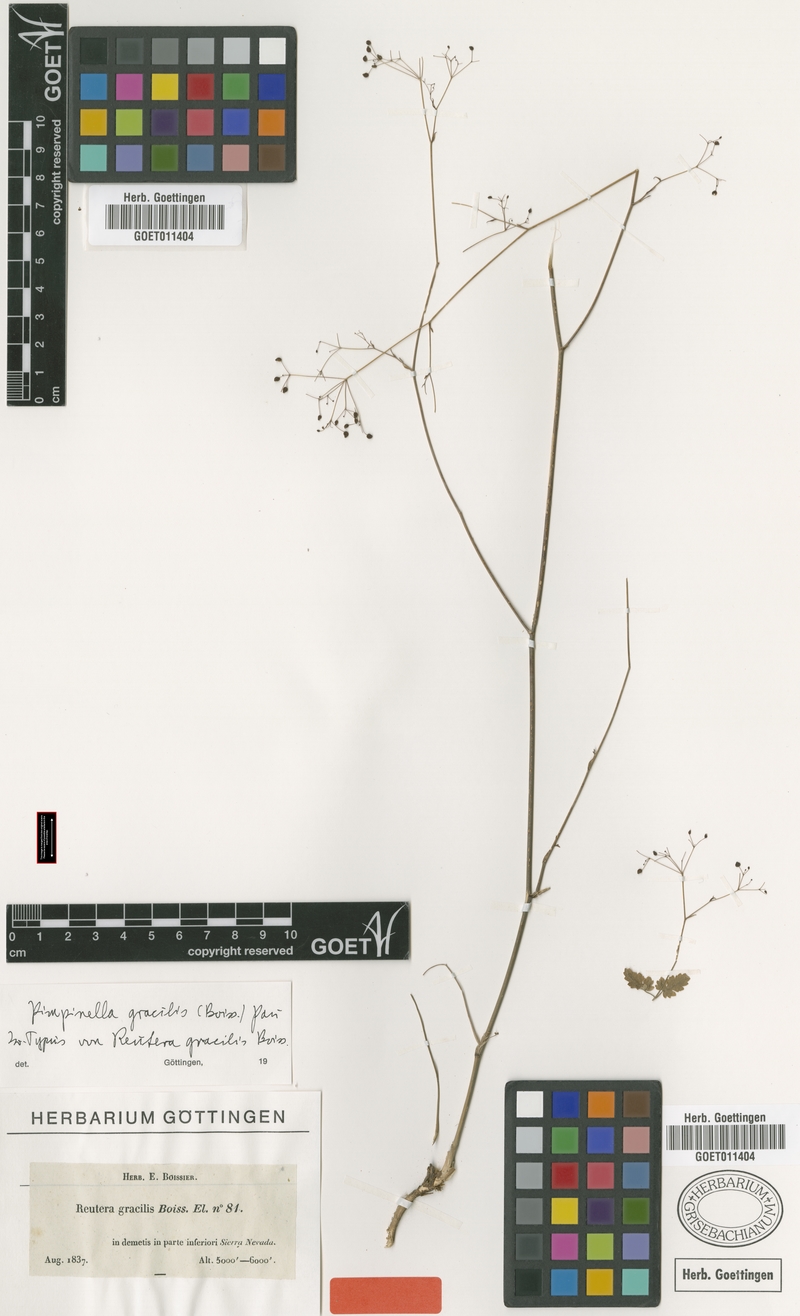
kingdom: Plantae
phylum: Tracheophyta
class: Magnoliopsida
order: Apiales
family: Apiaceae
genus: Pimpinella
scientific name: Pimpinella propinqua
